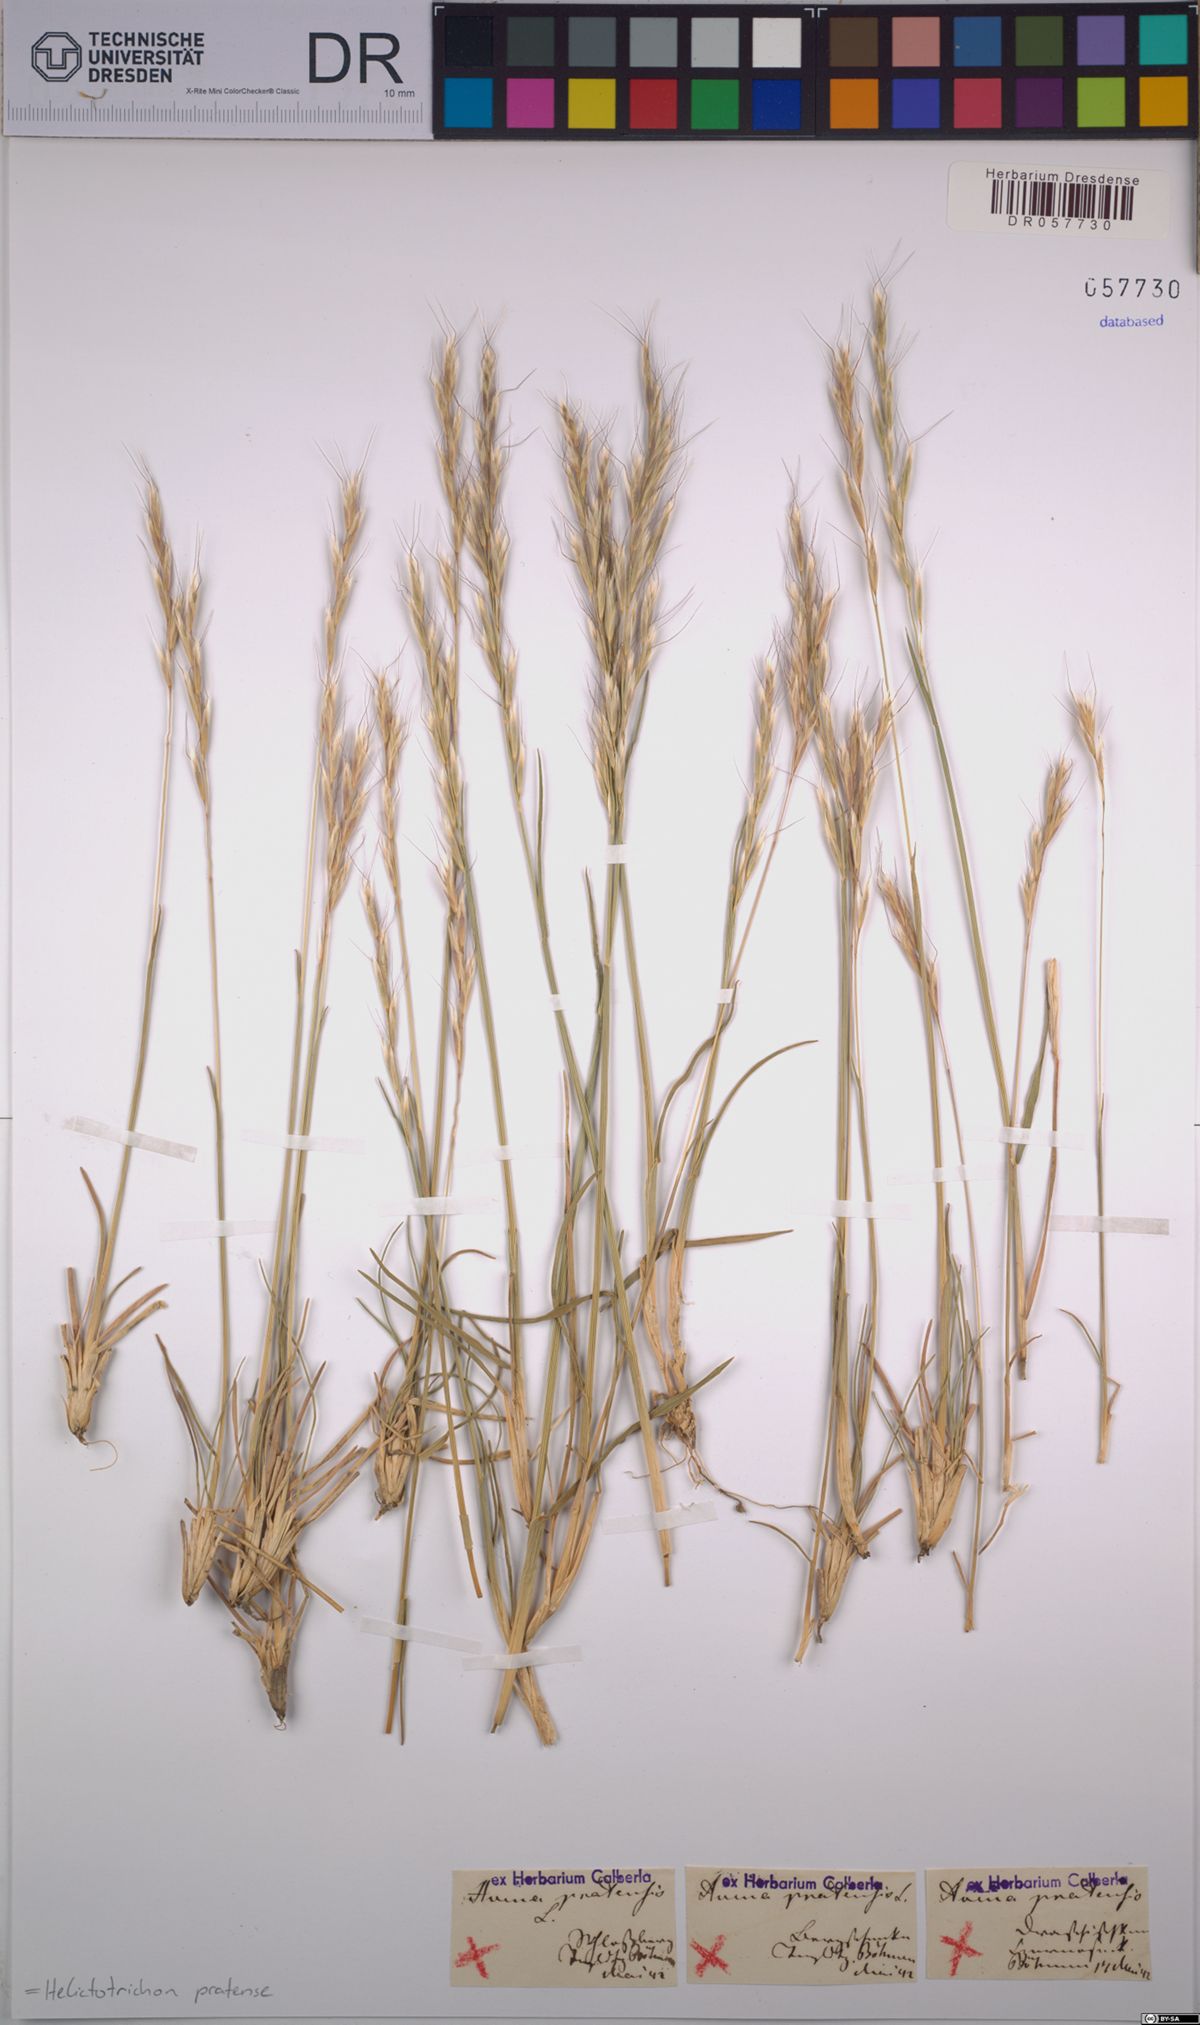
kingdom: Plantae
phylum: Tracheophyta
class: Liliopsida
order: Poales
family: Poaceae
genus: Helictochloa
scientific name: Helictochloa pratensis
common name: Meadow oat grass
